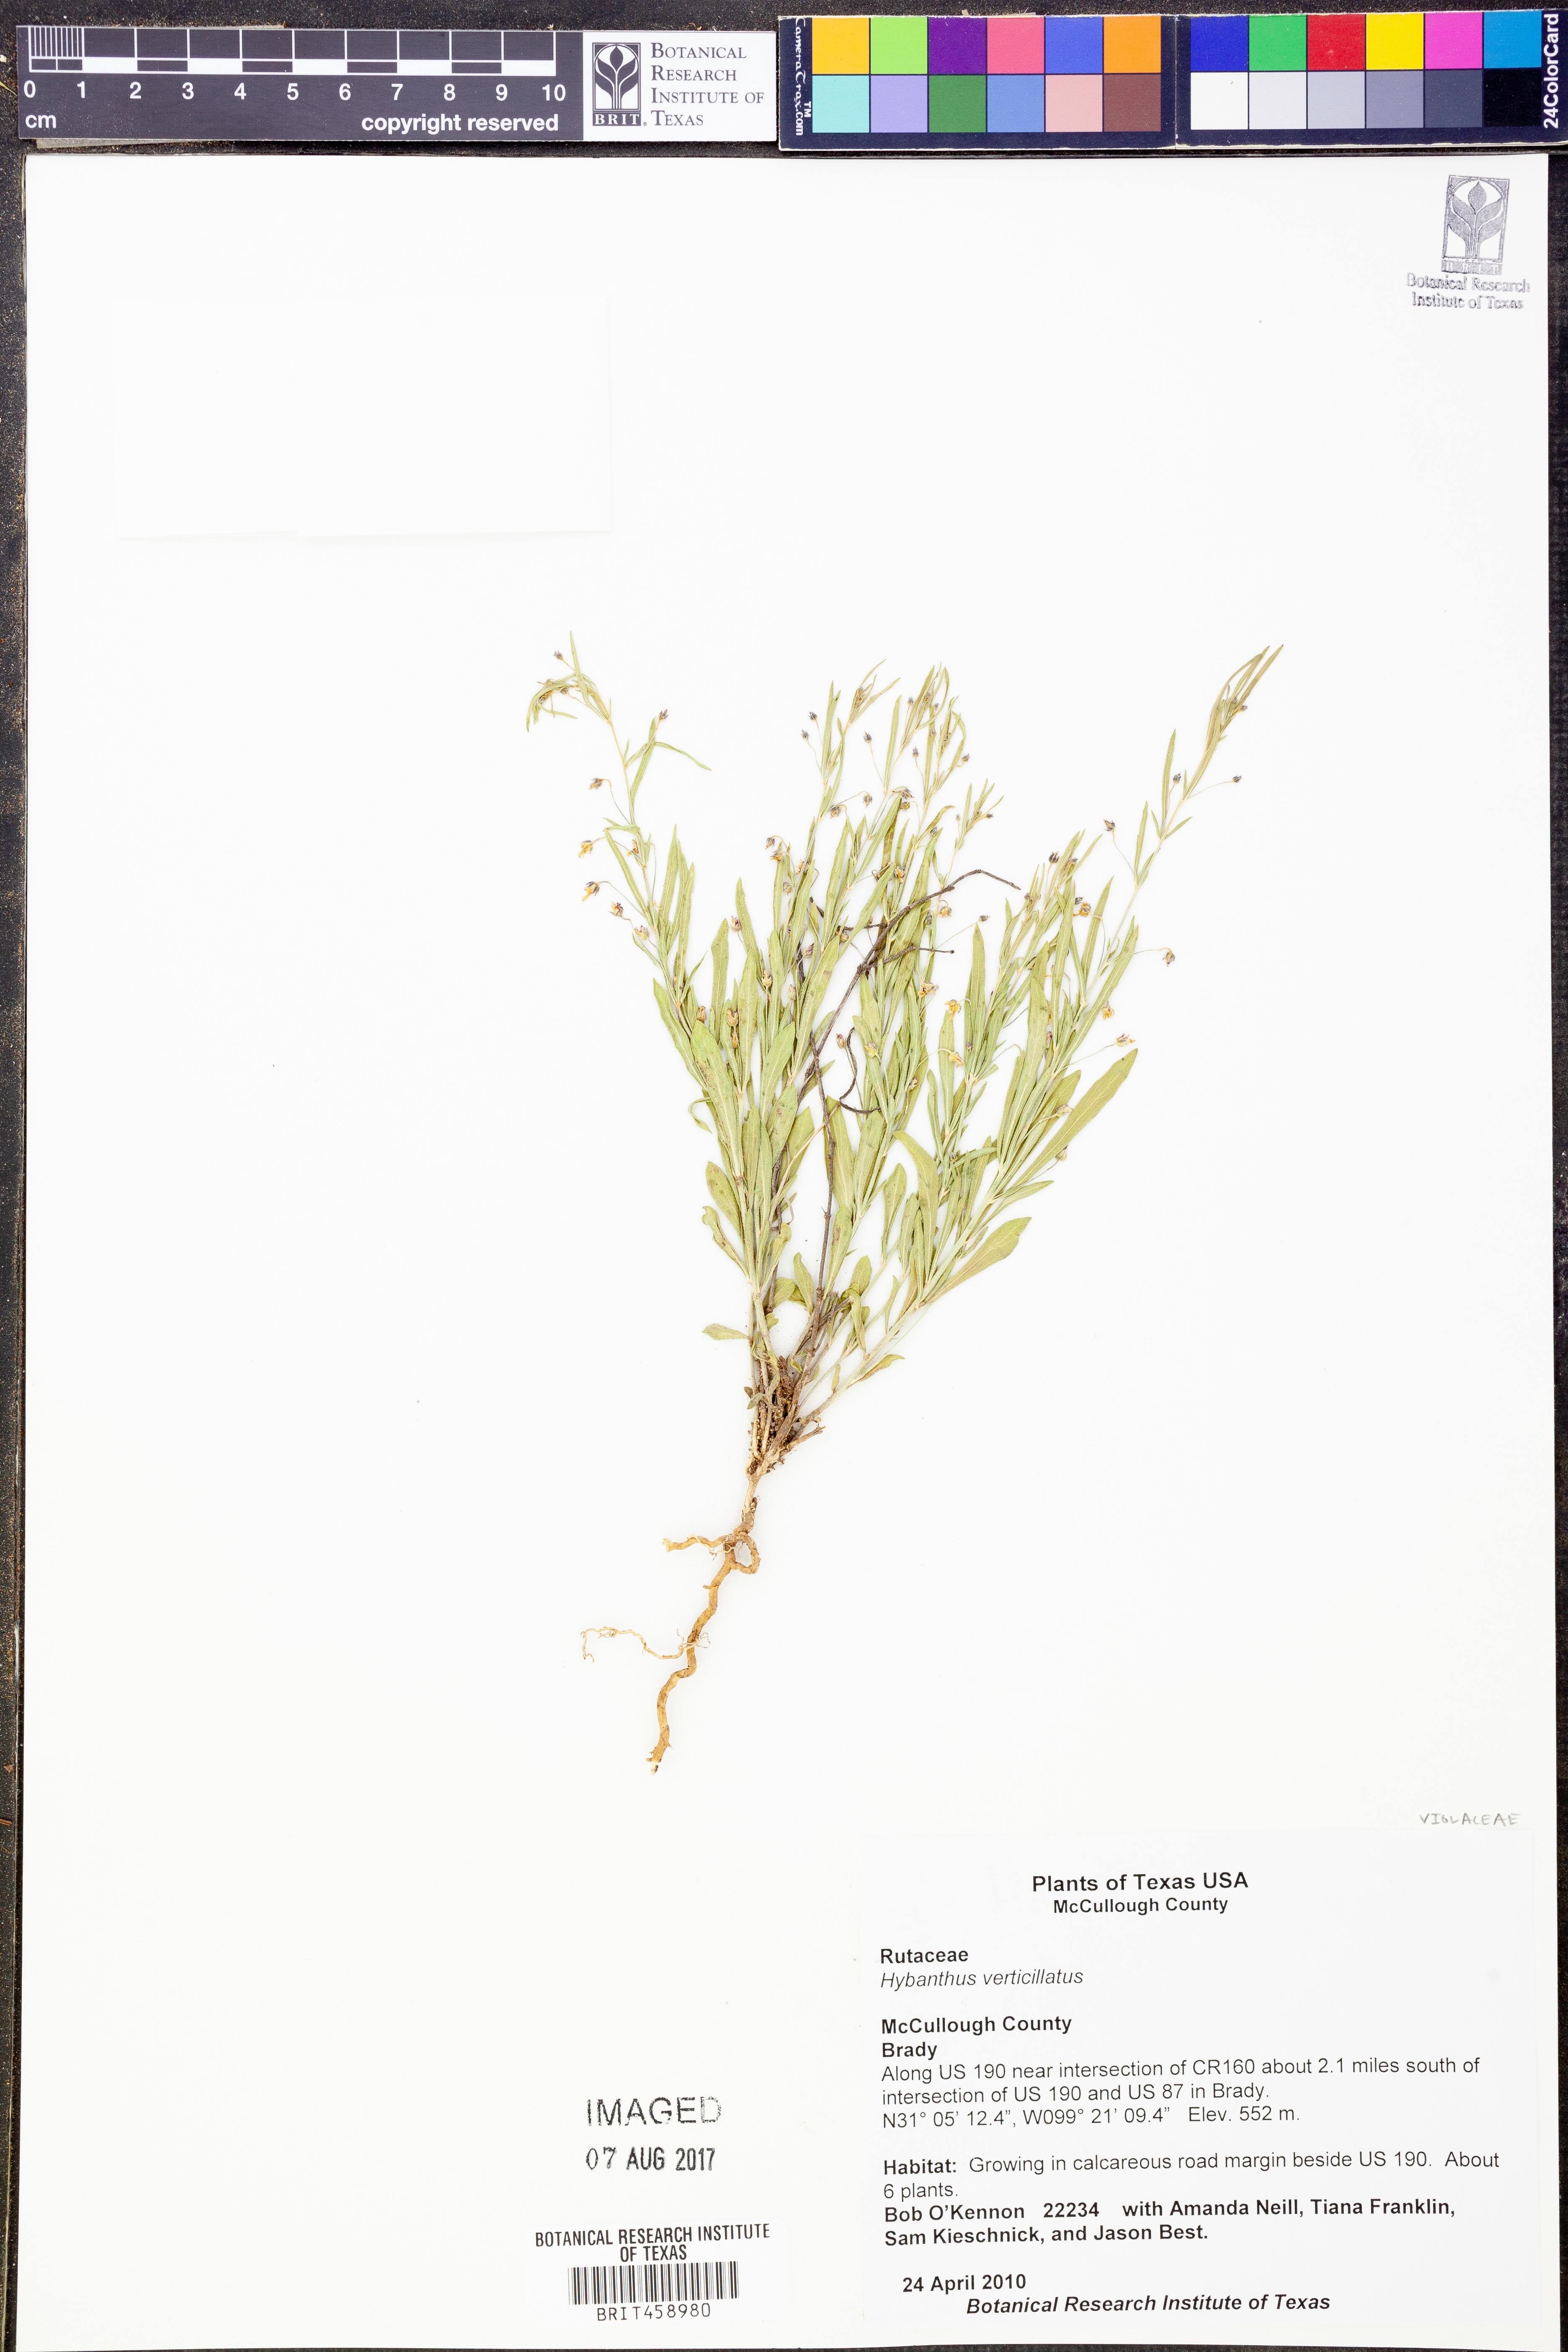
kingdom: Plantae
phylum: Tracheophyta
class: Magnoliopsida
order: Malpighiales
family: Violaceae
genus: Pombalia
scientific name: Pombalia verticillata
